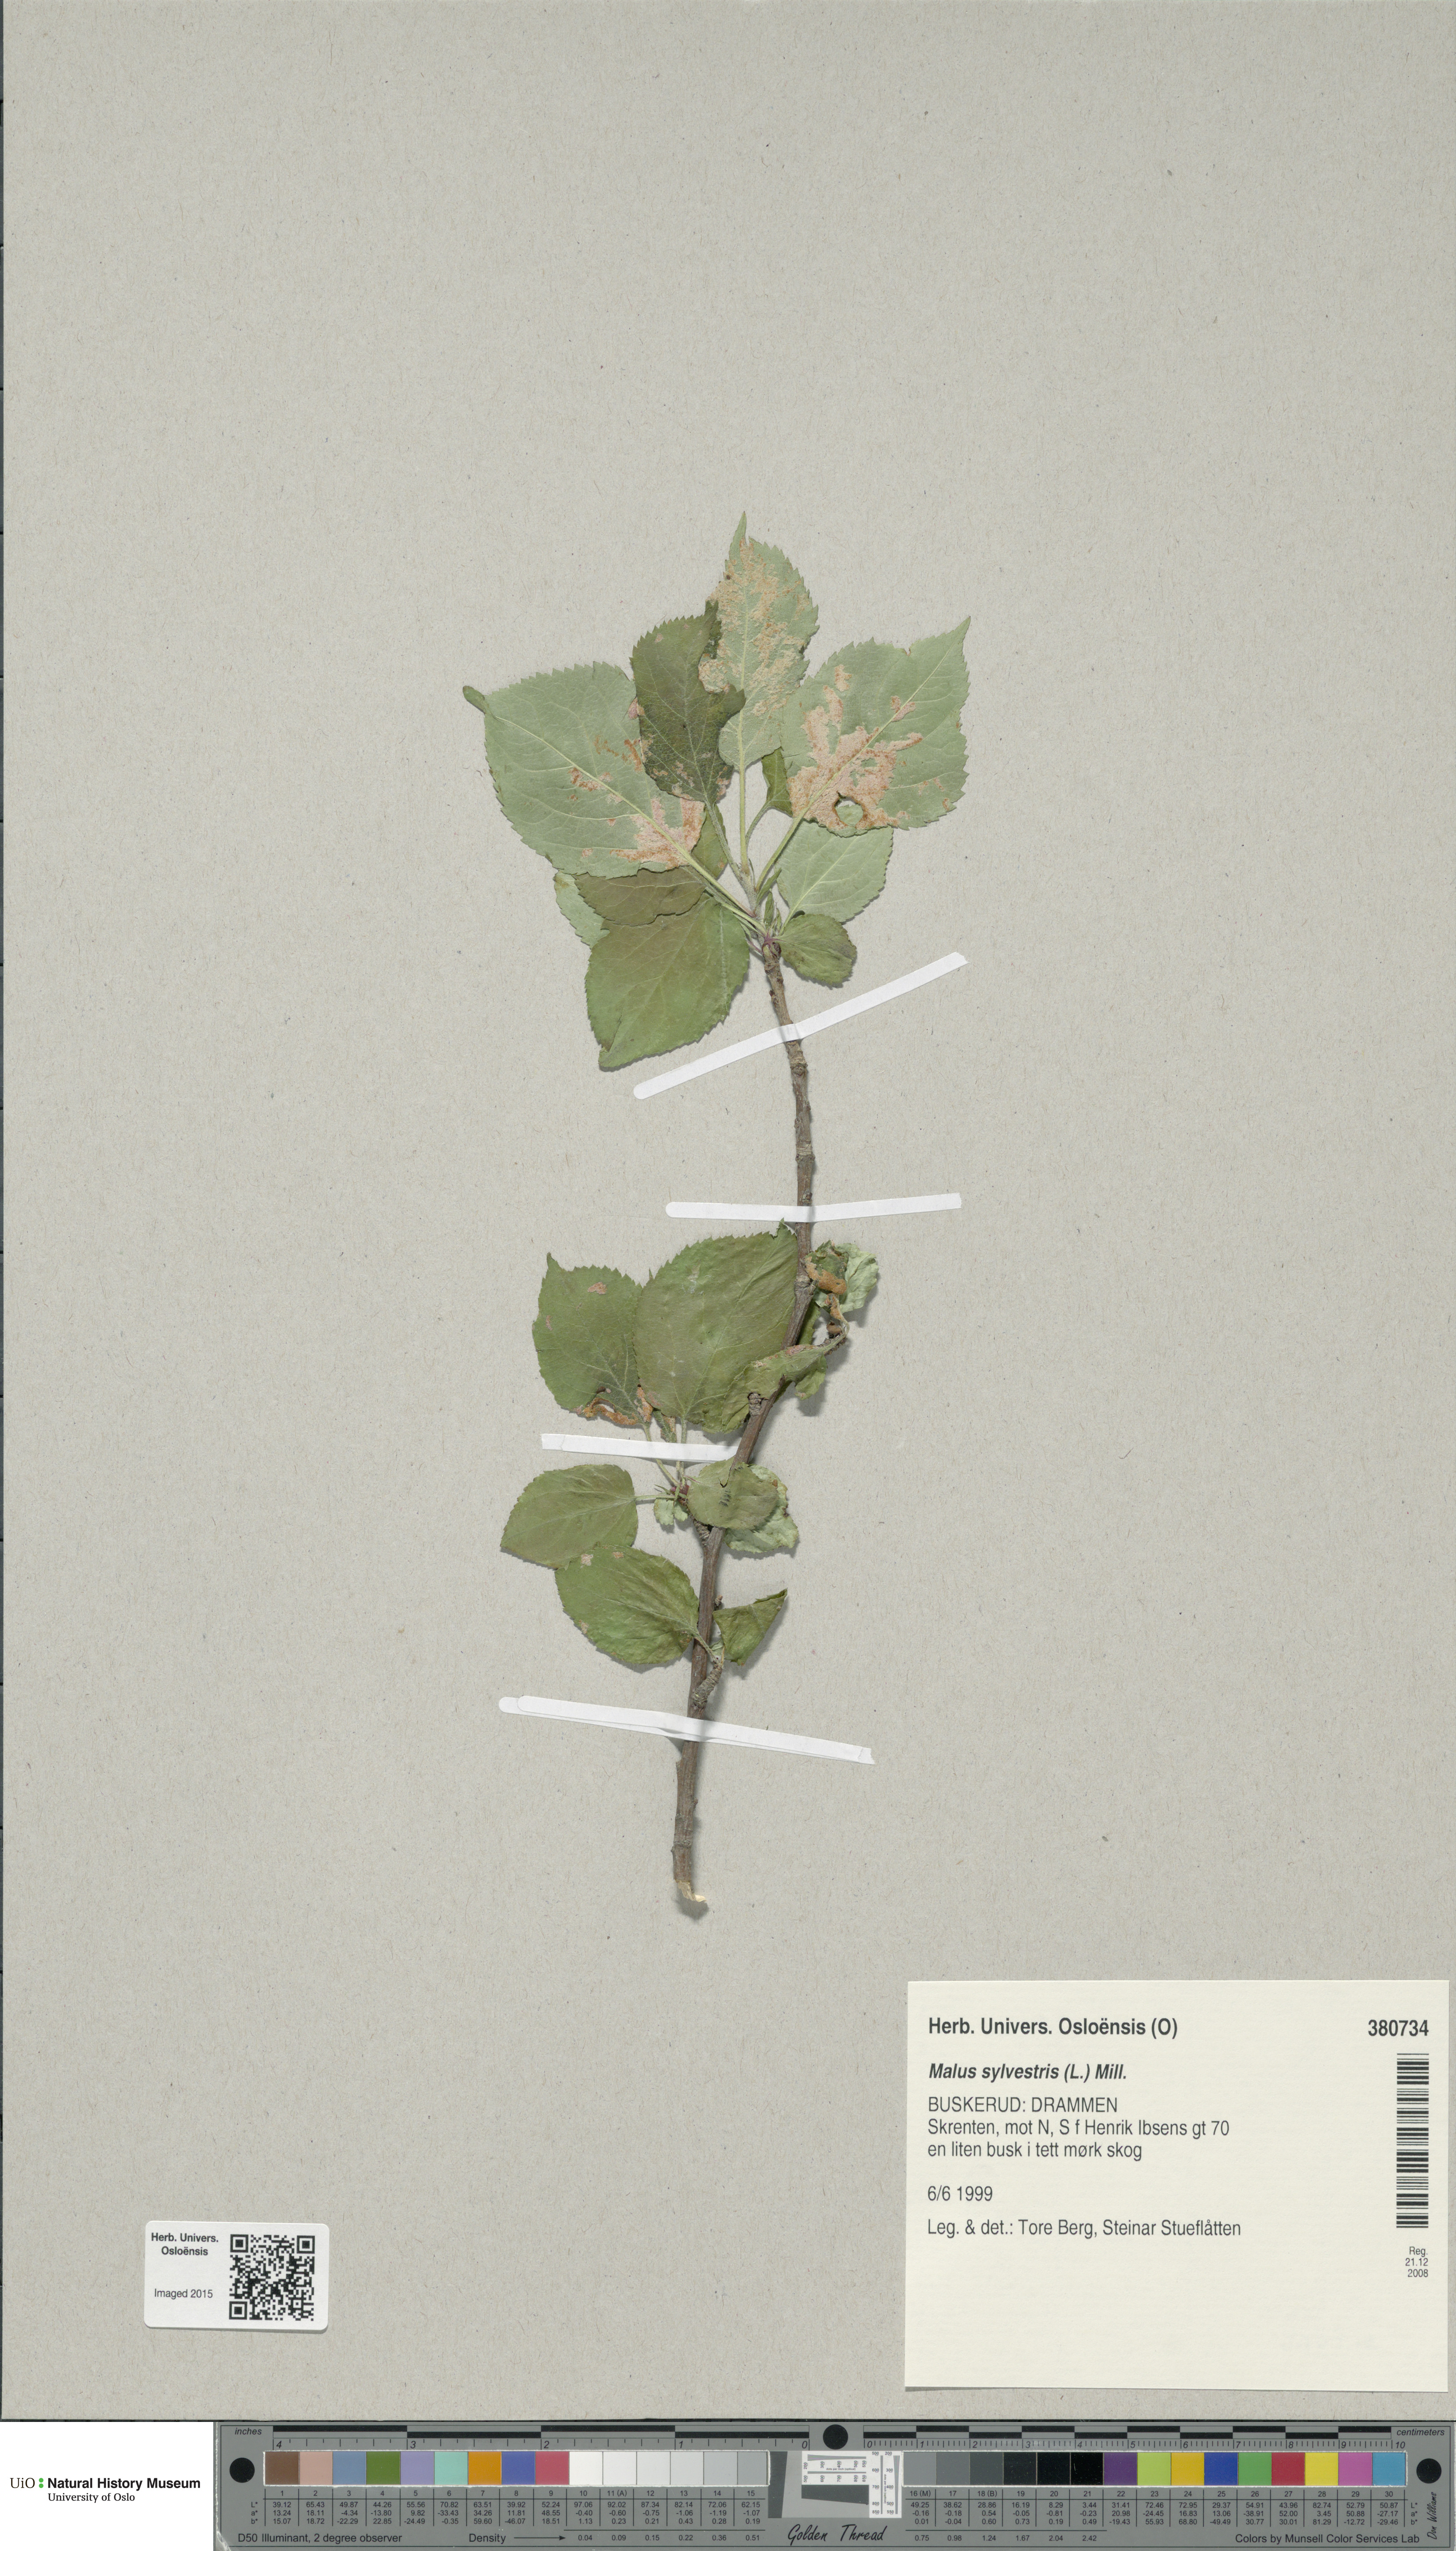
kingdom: Plantae
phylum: Tracheophyta
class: Magnoliopsida
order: Rosales
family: Rosaceae
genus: Malus
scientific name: Malus
